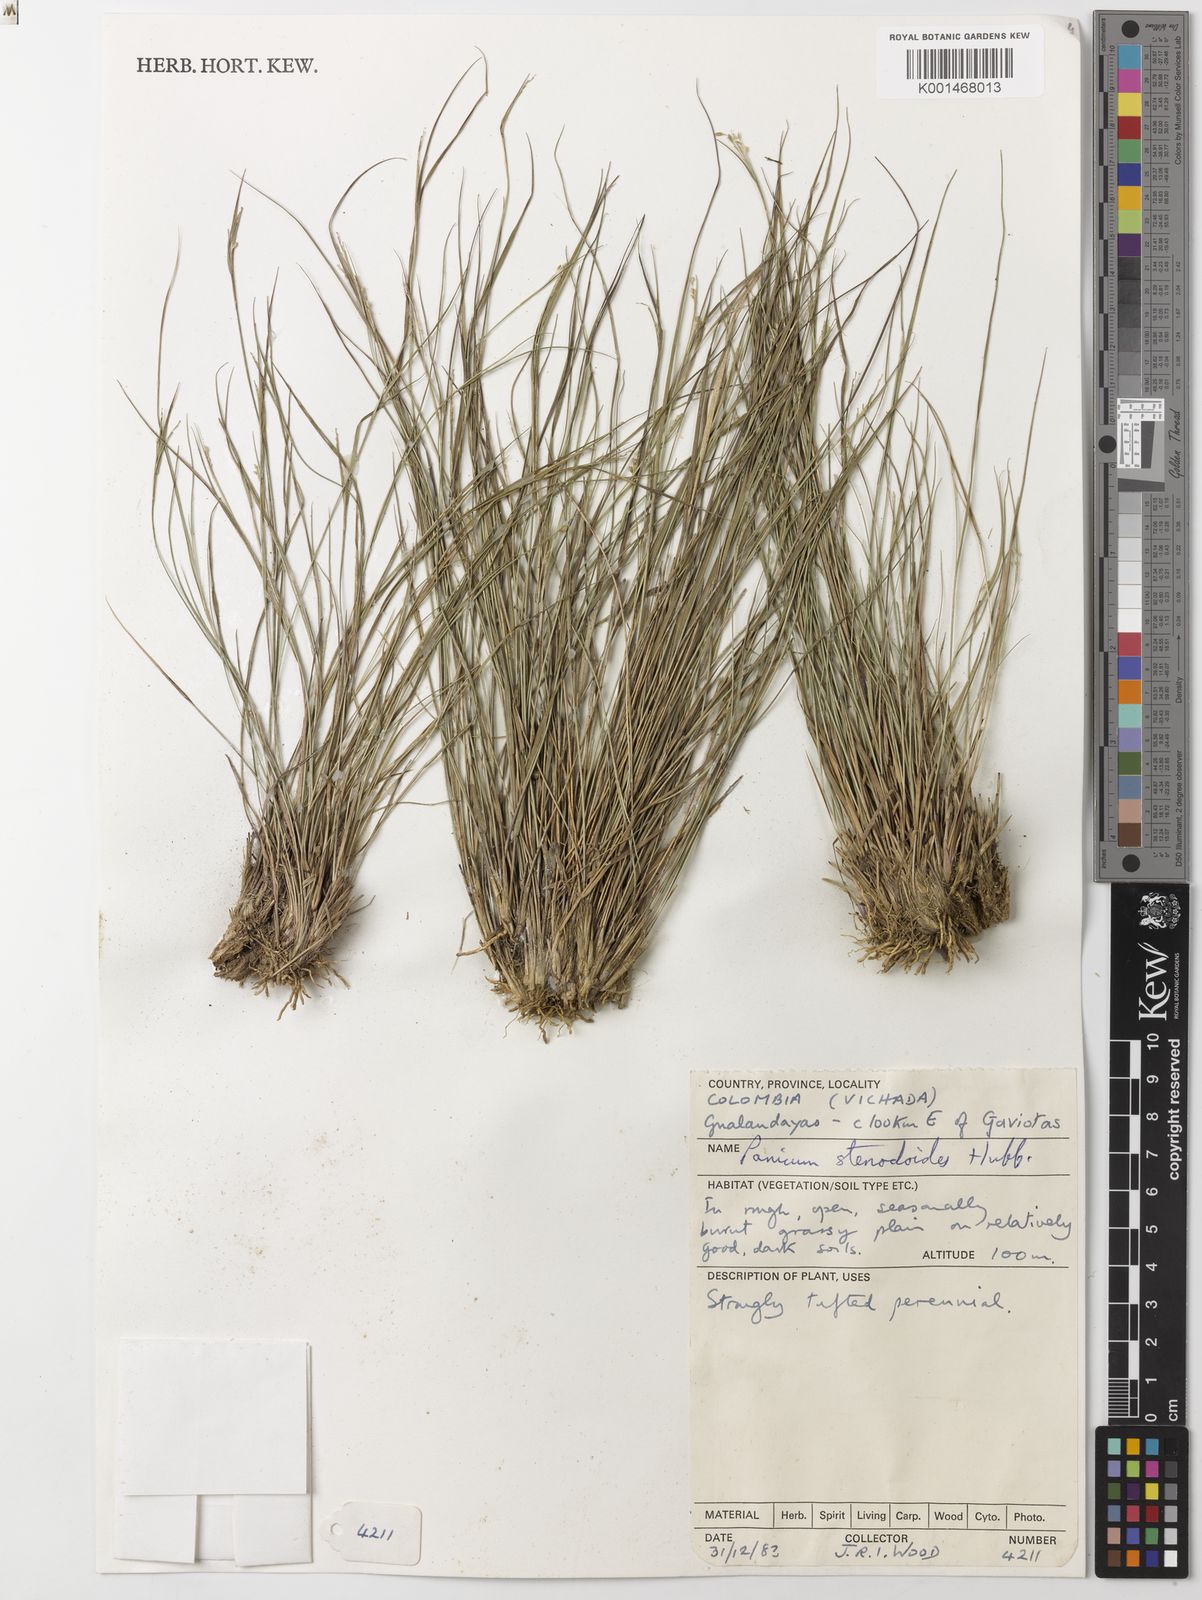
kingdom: Plantae
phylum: Tracheophyta
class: Liliopsida
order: Poales
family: Poaceae
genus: Coleataenia
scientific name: Coleataenia caricoides
